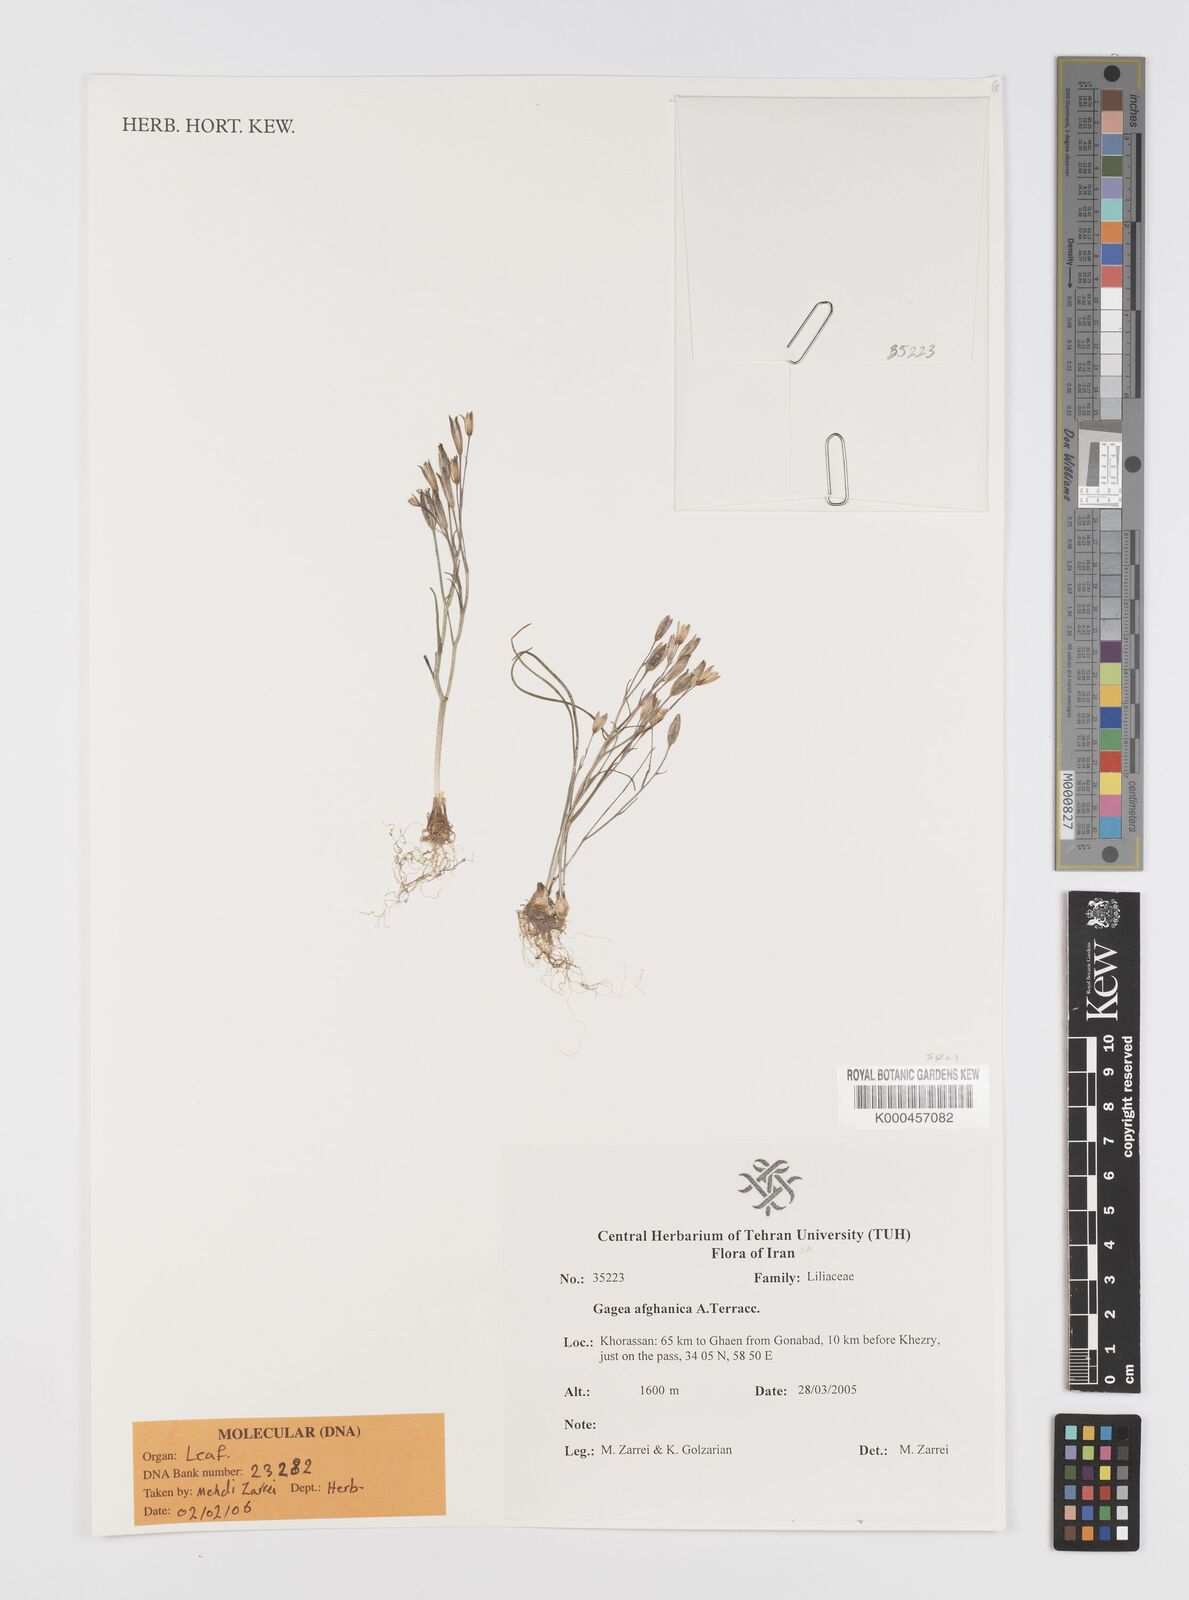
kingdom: Plantae
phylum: Tracheophyta
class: Liliopsida
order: Liliales
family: Liliaceae
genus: Gagea
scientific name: Gagea afghanica
